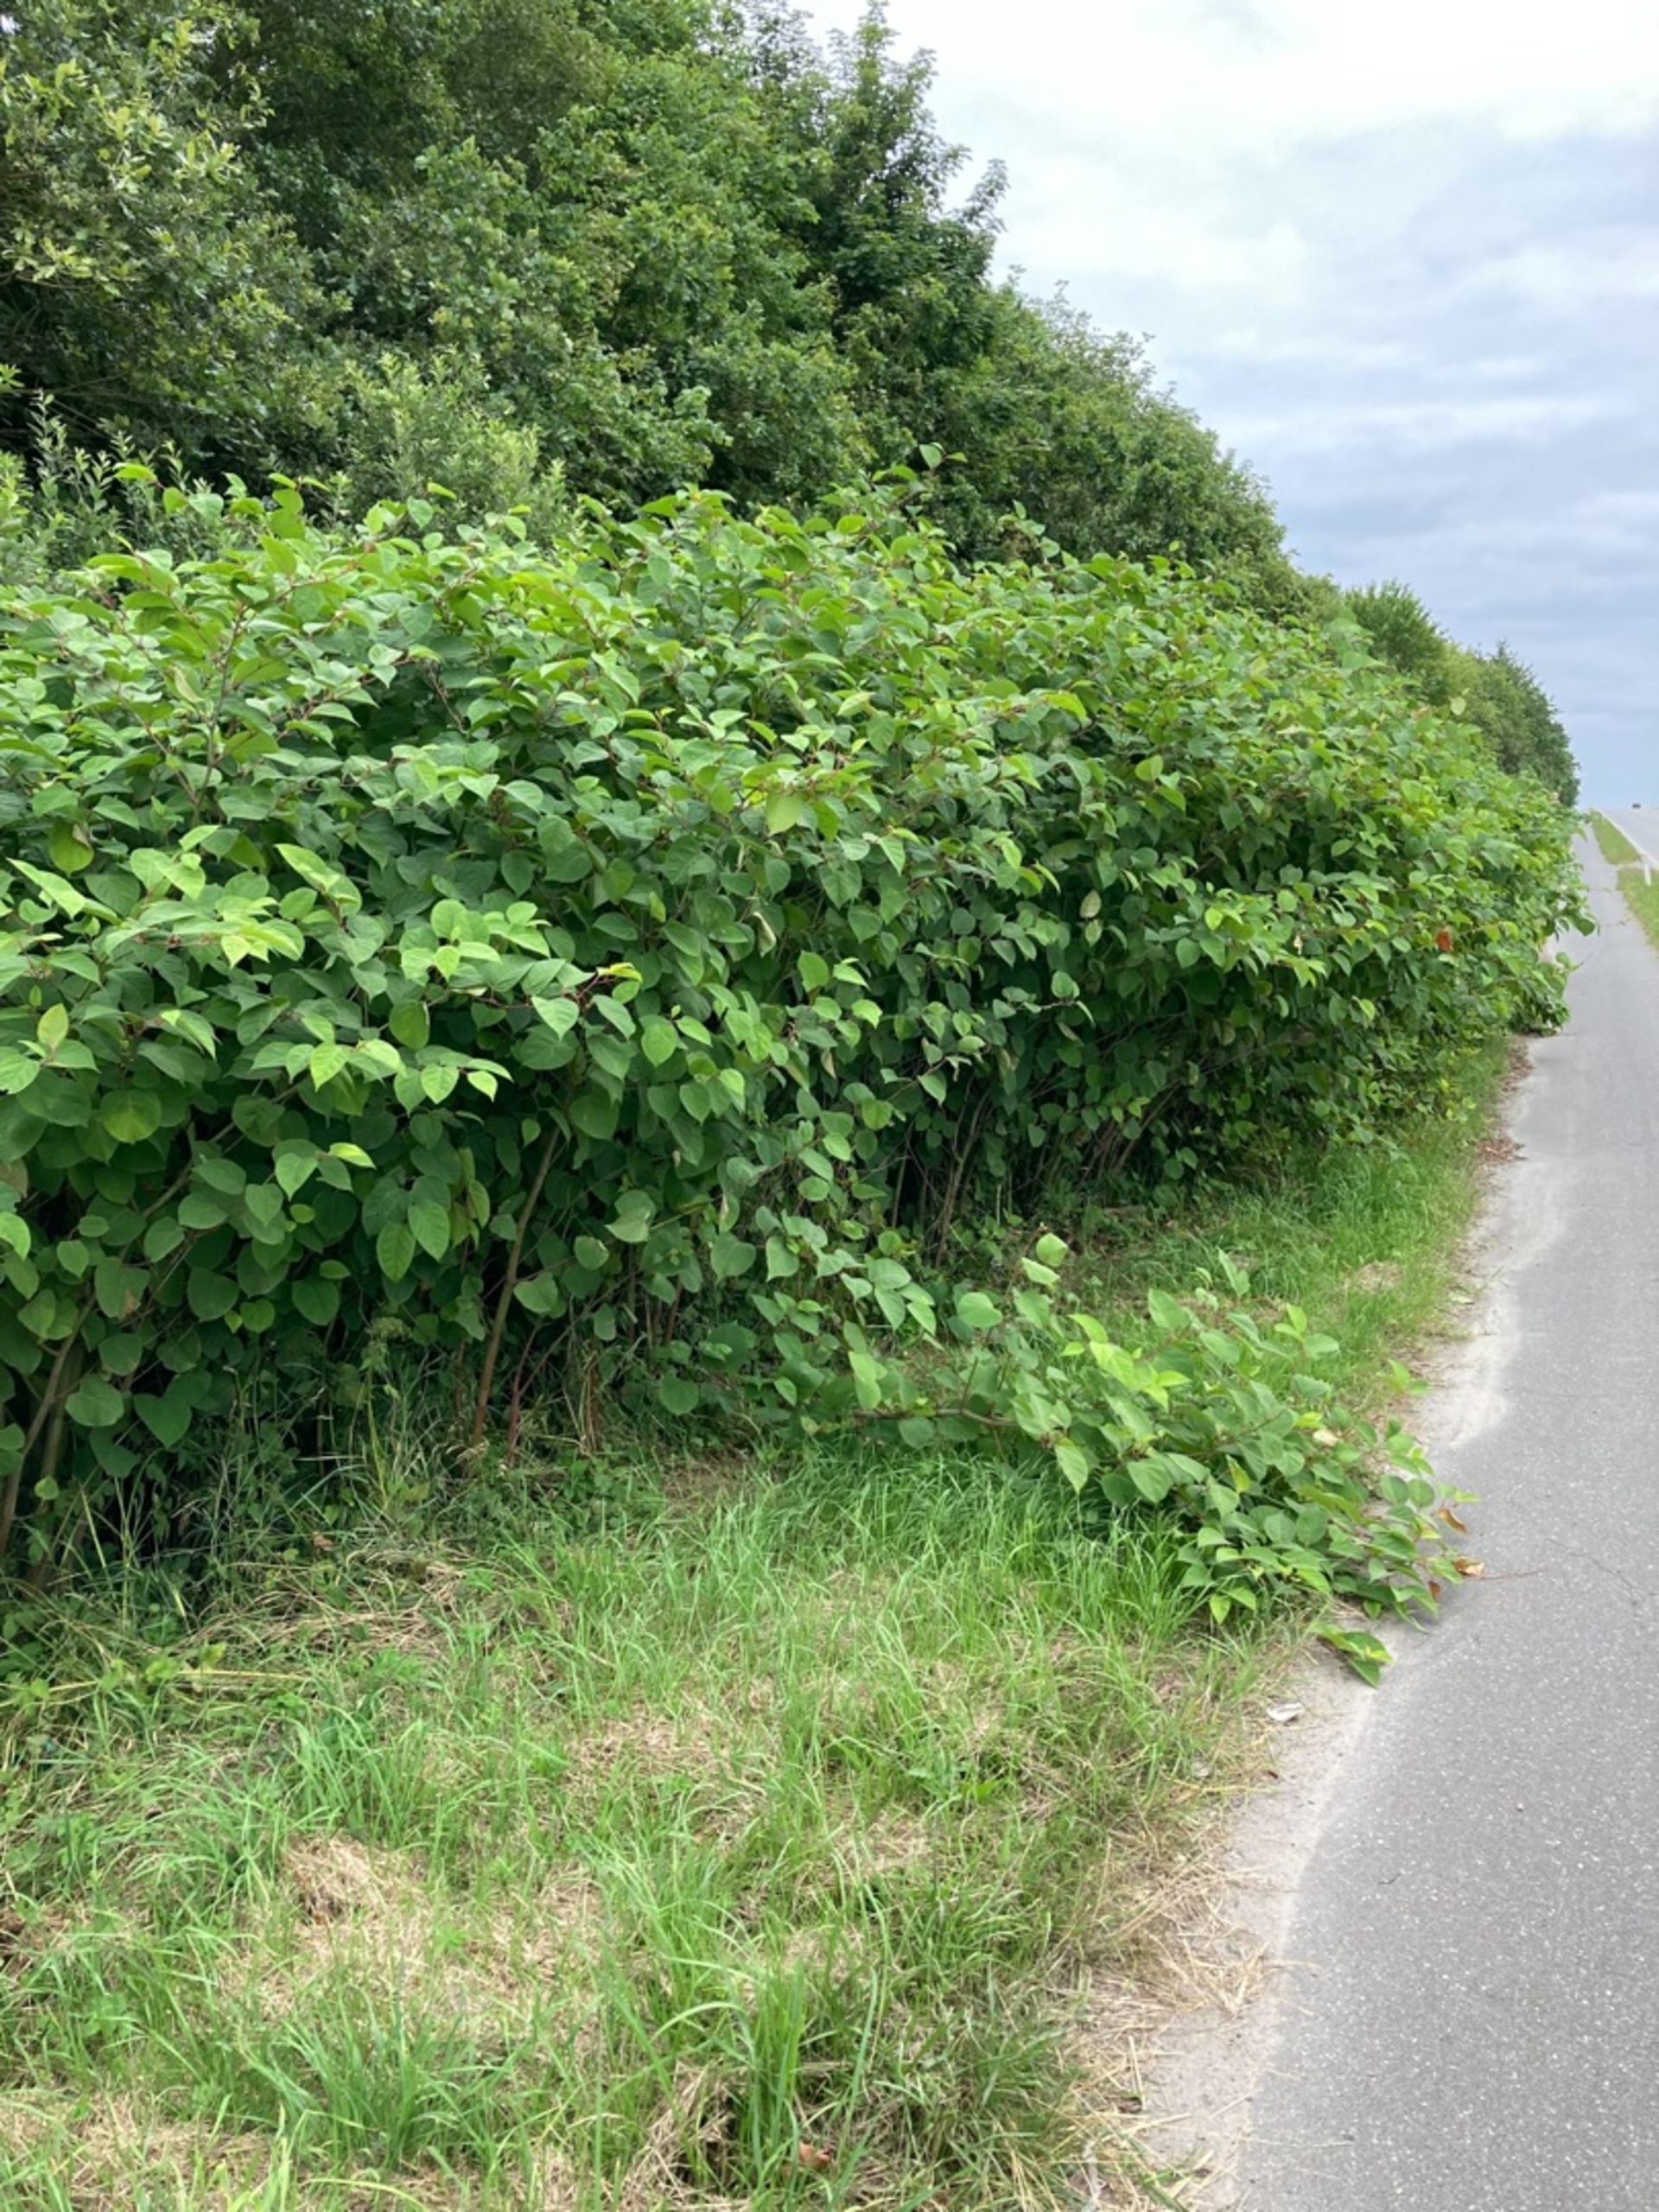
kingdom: Plantae
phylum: Tracheophyta
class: Magnoliopsida
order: Caryophyllales
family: Polygonaceae
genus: Reynoutria
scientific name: Reynoutria japonica
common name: Japan-pileurt
